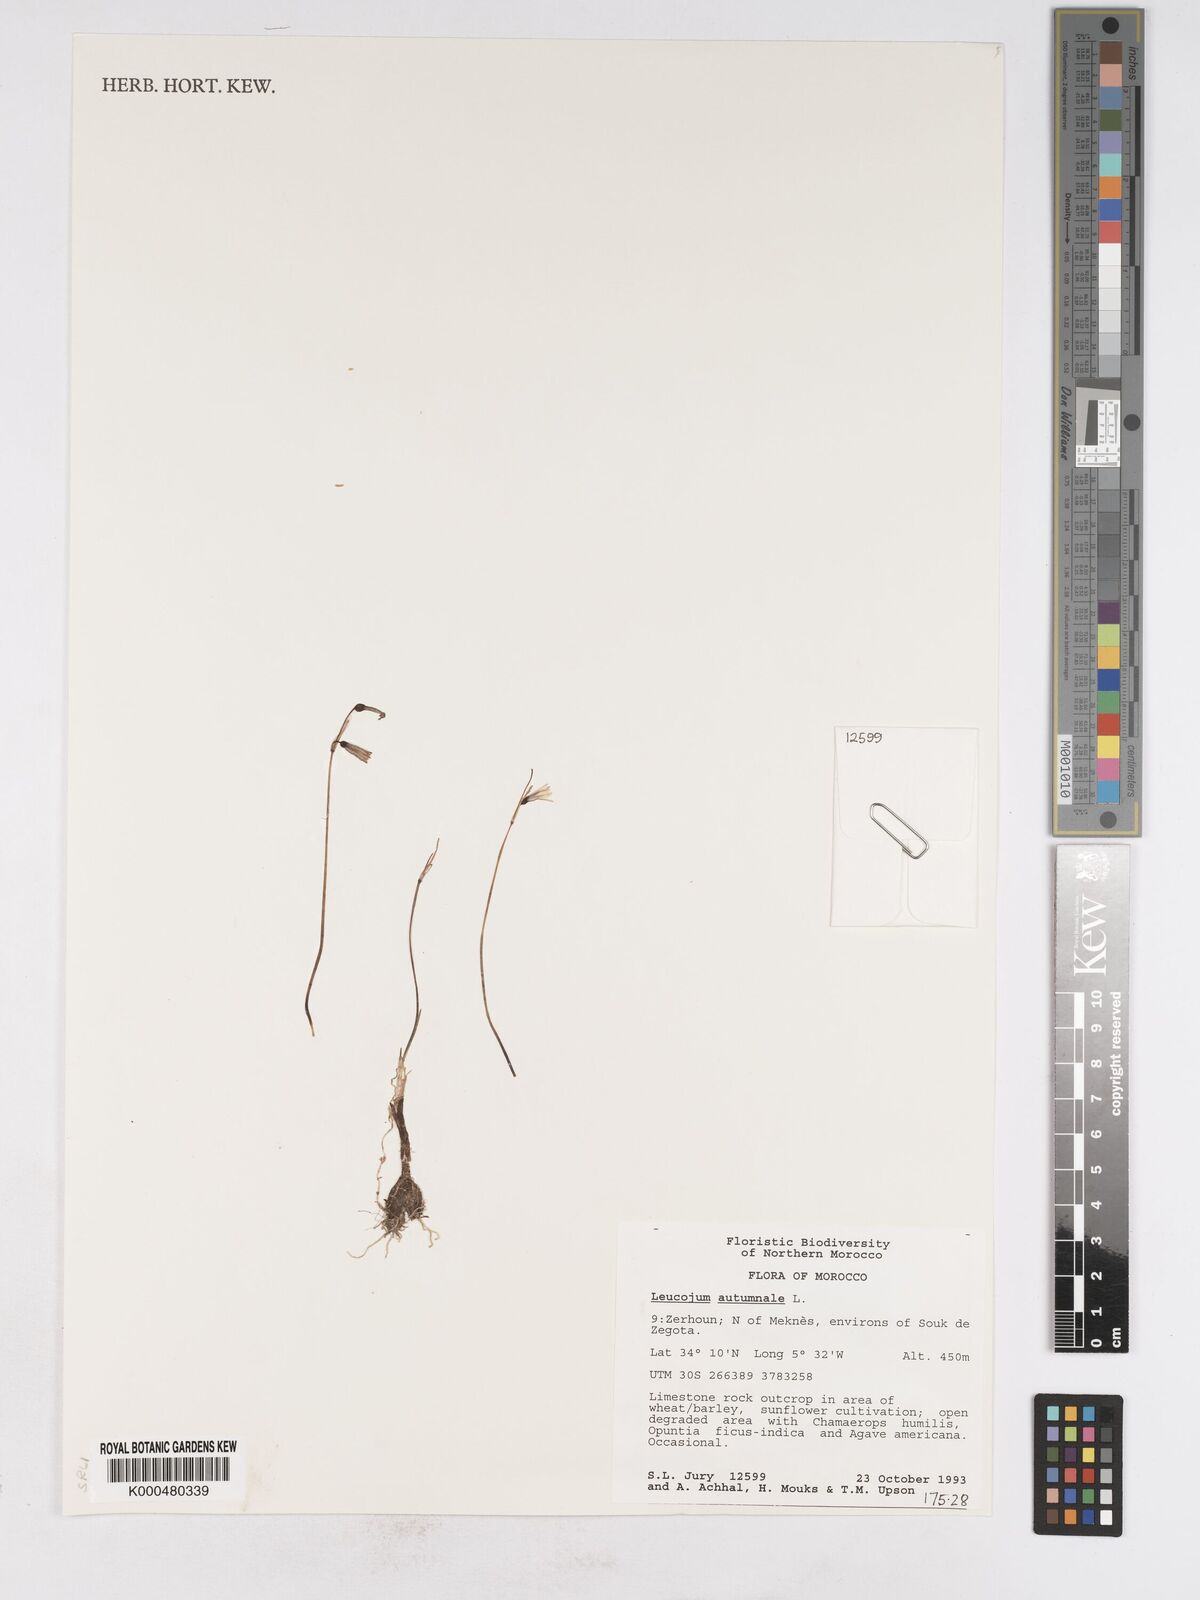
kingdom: Plantae
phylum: Tracheophyta
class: Liliopsida
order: Asparagales
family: Amaryllidaceae
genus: Acis
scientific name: Acis autumnalis
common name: Autumn snowflake
